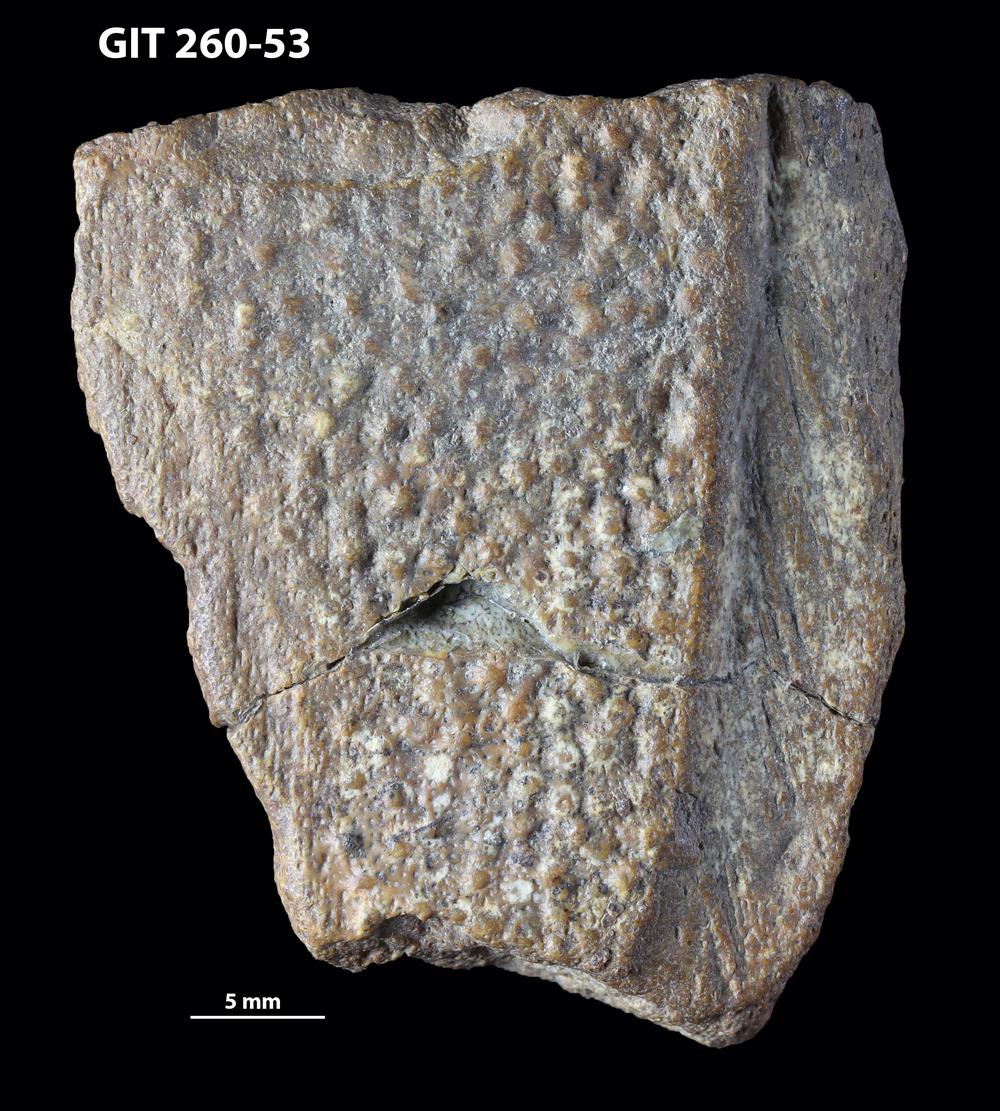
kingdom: Animalia
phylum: Chordata
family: Homostiidae
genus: Homostius
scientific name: Homostius
